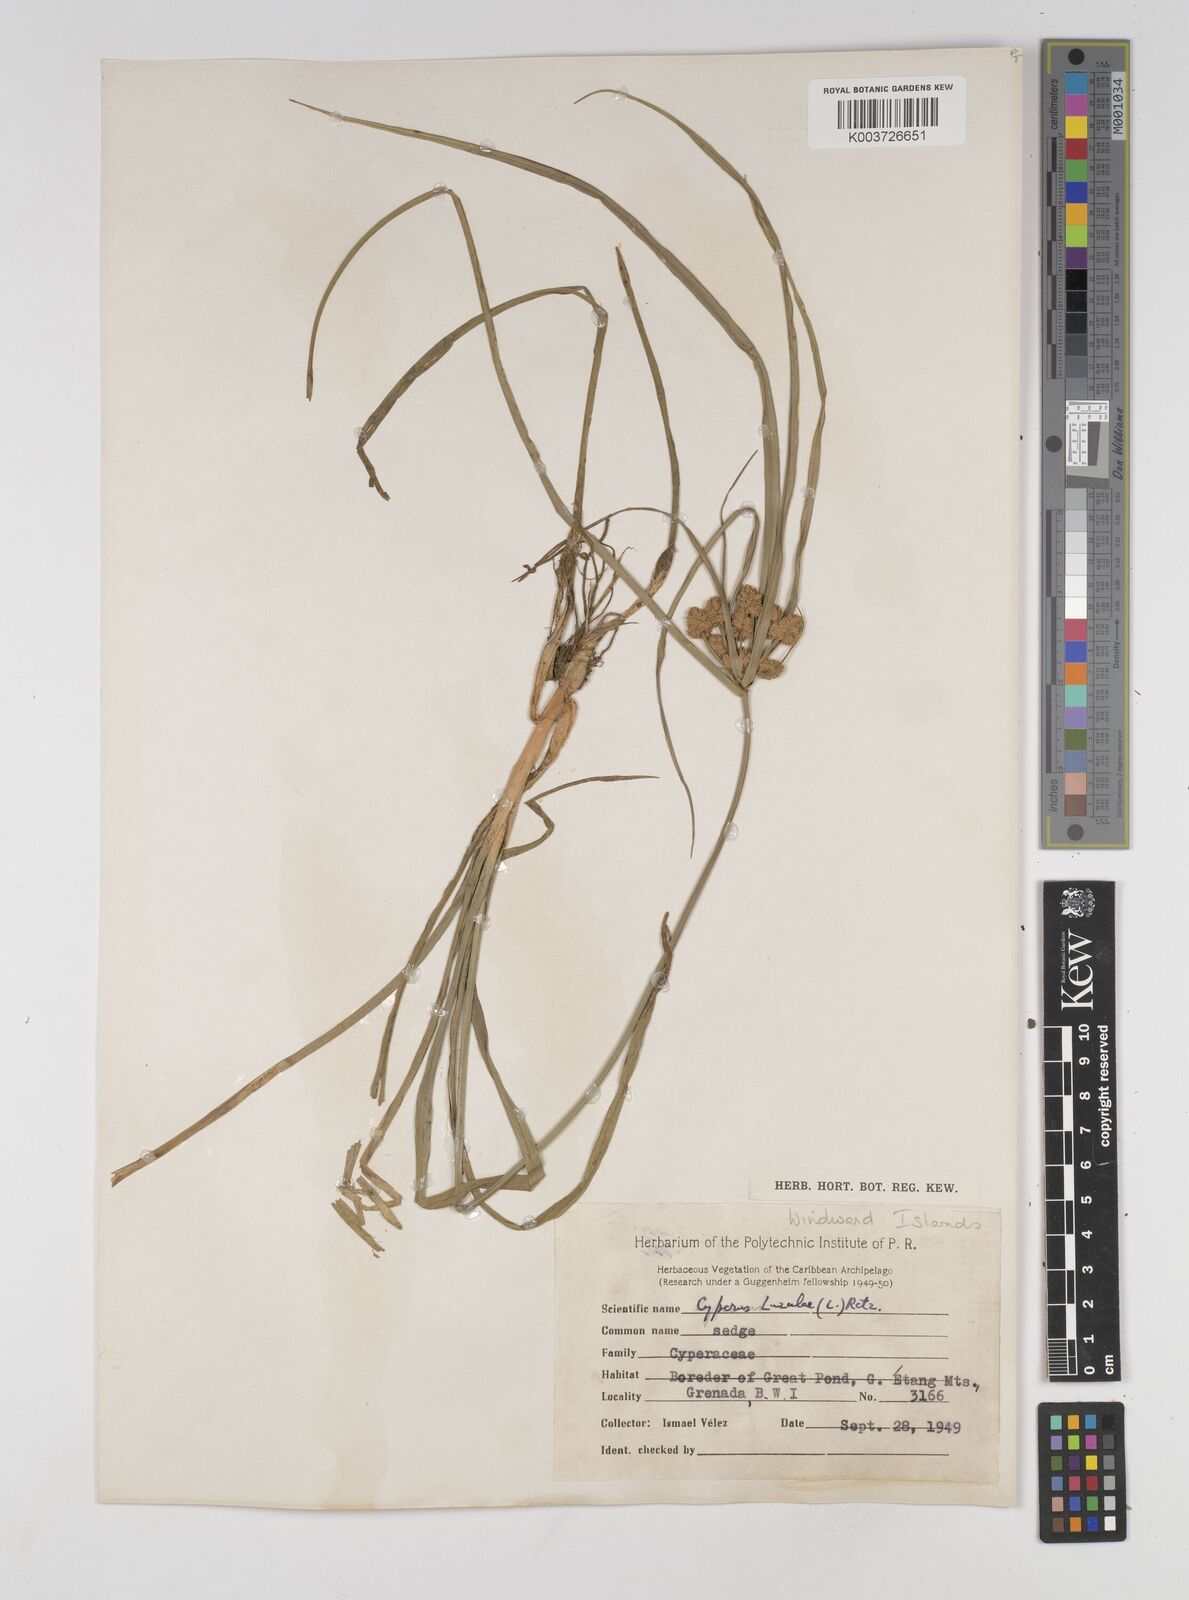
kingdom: Plantae
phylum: Tracheophyta
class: Liliopsida
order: Poales
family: Cyperaceae
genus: Cyperus
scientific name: Cyperus luzulae
